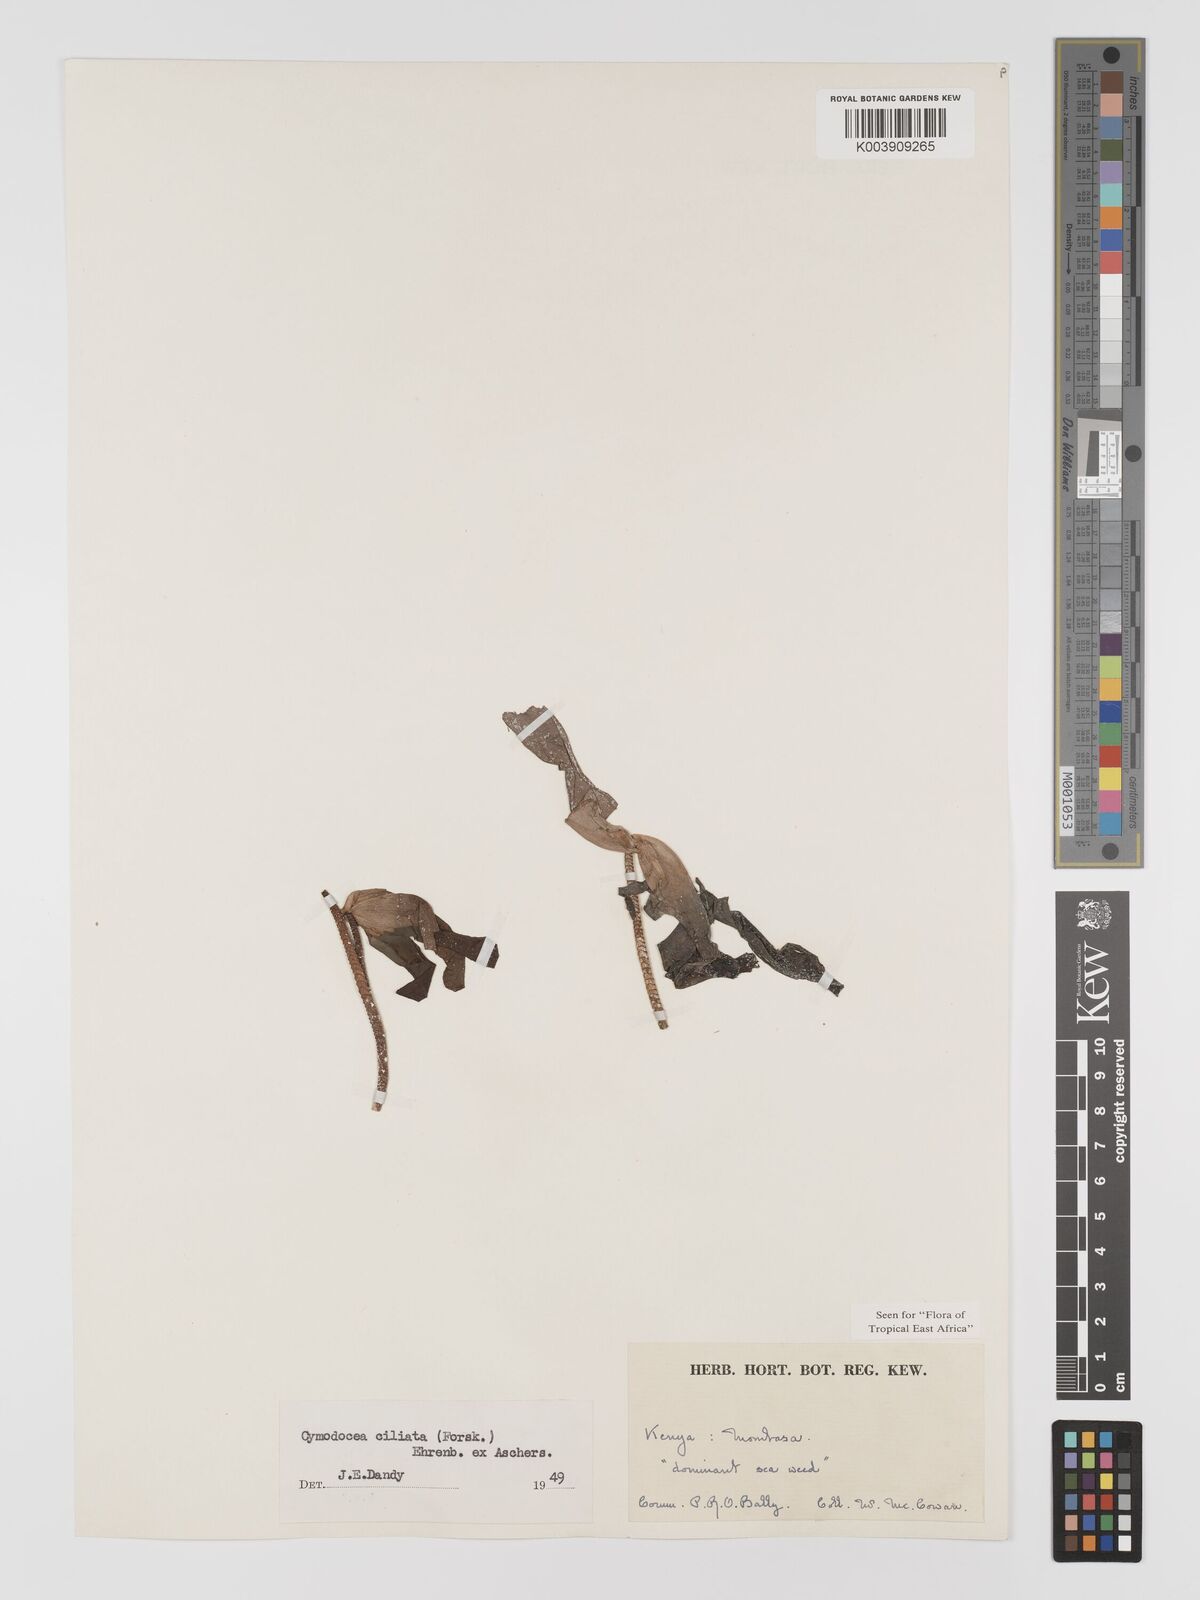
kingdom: Plantae
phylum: Tracheophyta
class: Liliopsida
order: Alismatales
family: Cymodoceaceae
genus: Thalassodendron
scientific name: Thalassodendron ciliatum
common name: Species code: tc
